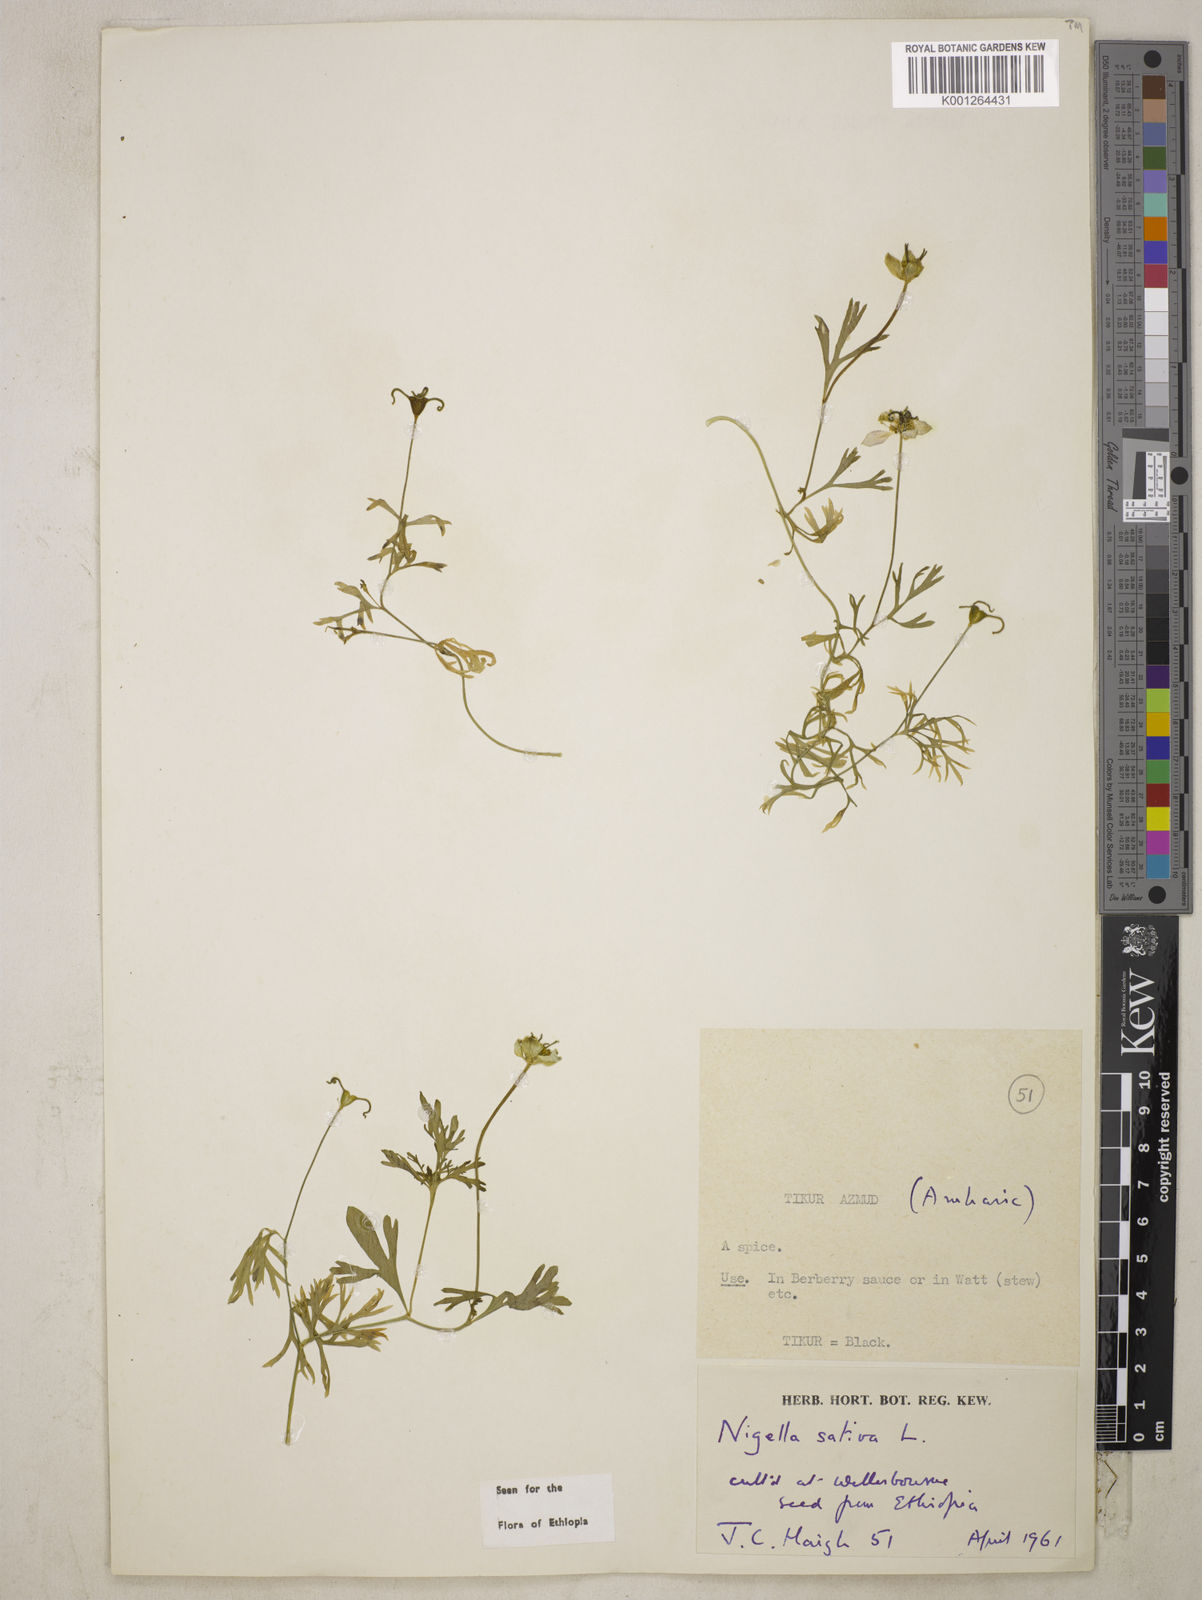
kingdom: Plantae
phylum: Tracheophyta
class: Magnoliopsida
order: Ranunculales
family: Ranunculaceae
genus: Nigella
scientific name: Nigella sativa
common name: Black-cumin
